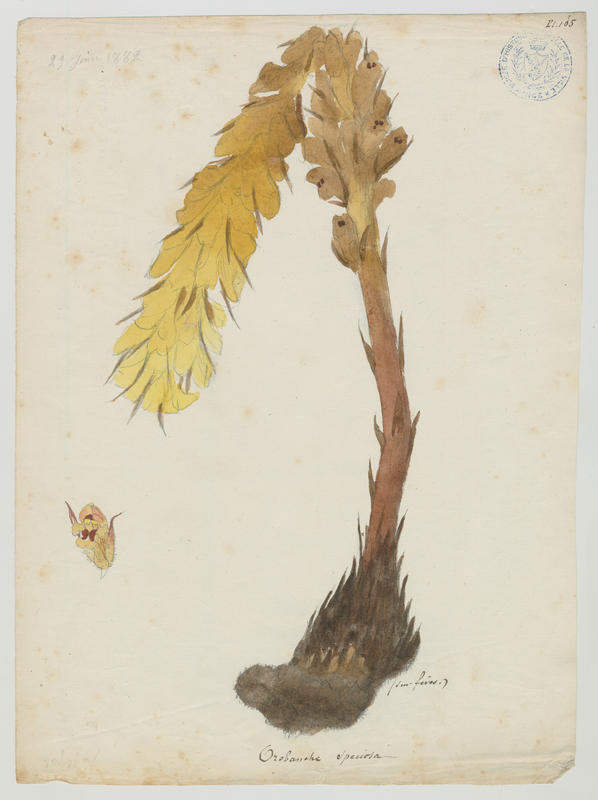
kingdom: Plantae
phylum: Tracheophyta
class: Magnoliopsida
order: Lamiales
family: Orobanchaceae
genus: Orobanche
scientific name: Orobanche crenata
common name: Bean broomrape
